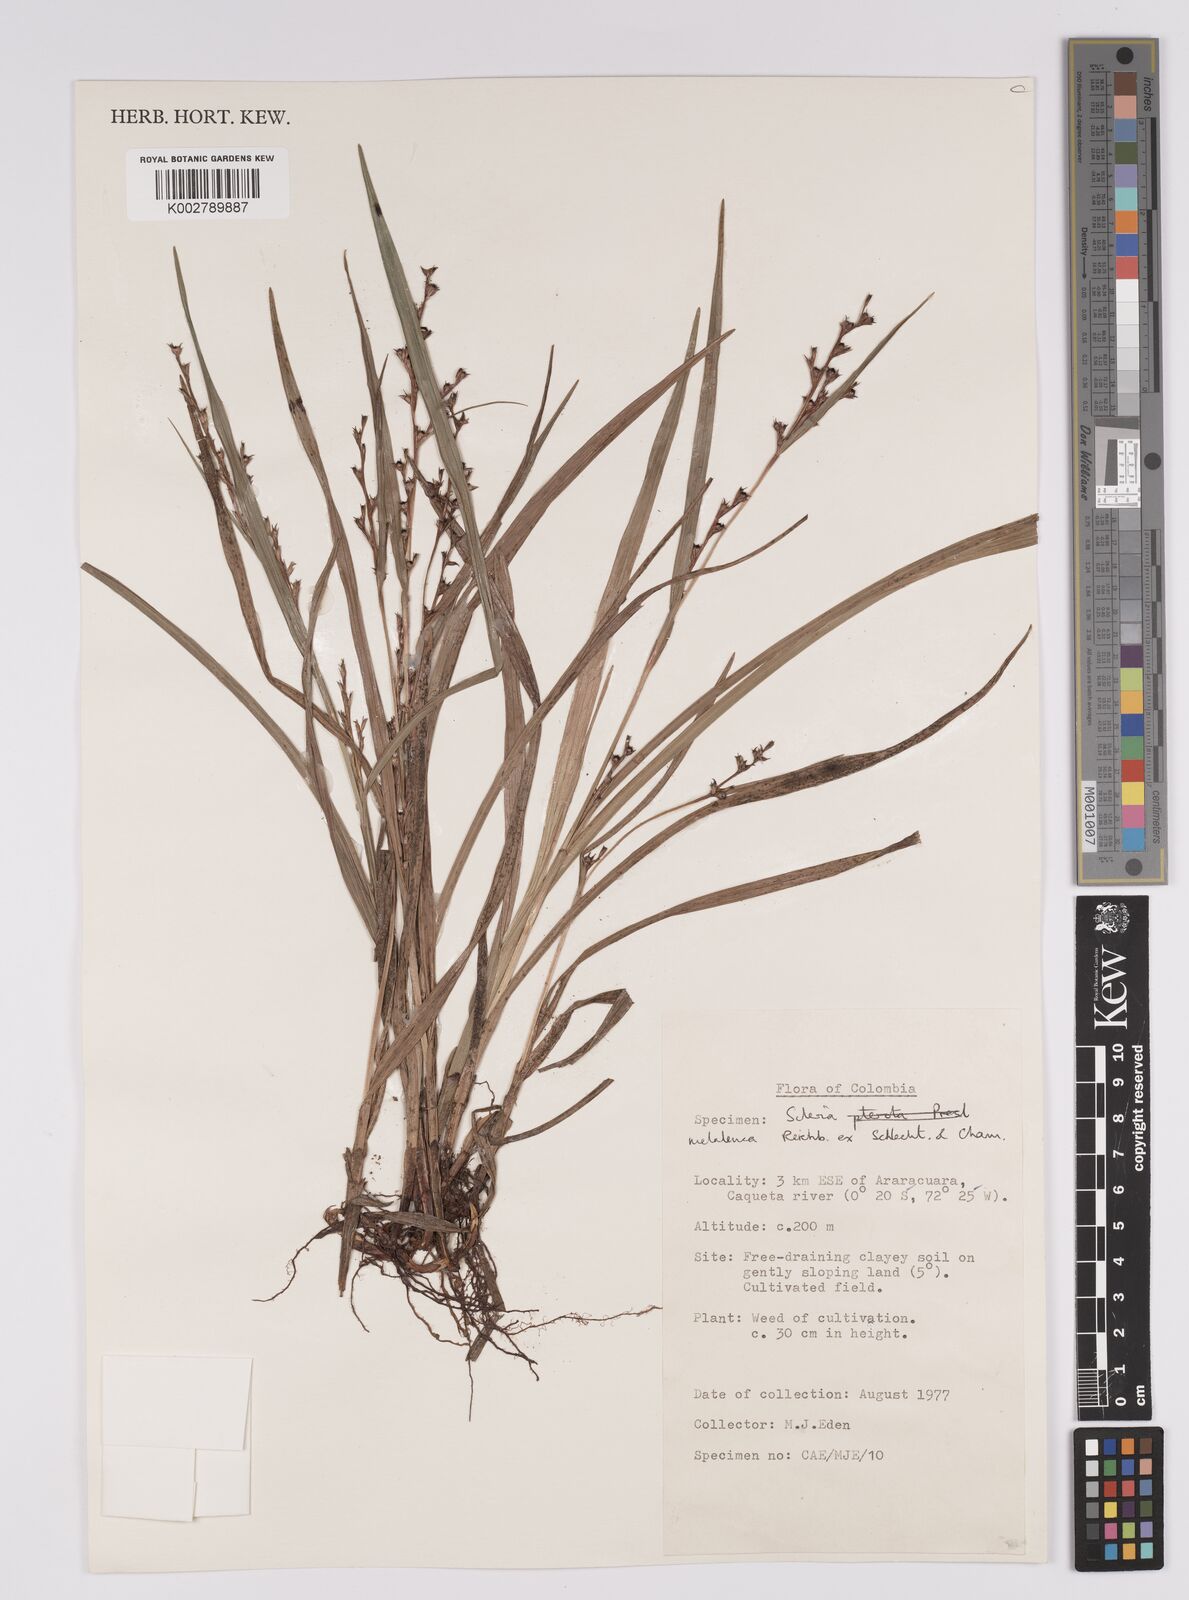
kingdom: Plantae
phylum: Tracheophyta
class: Liliopsida
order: Poales
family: Cyperaceae
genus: Scleria
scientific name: Scleria gaertneri
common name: Cortadera blanca
